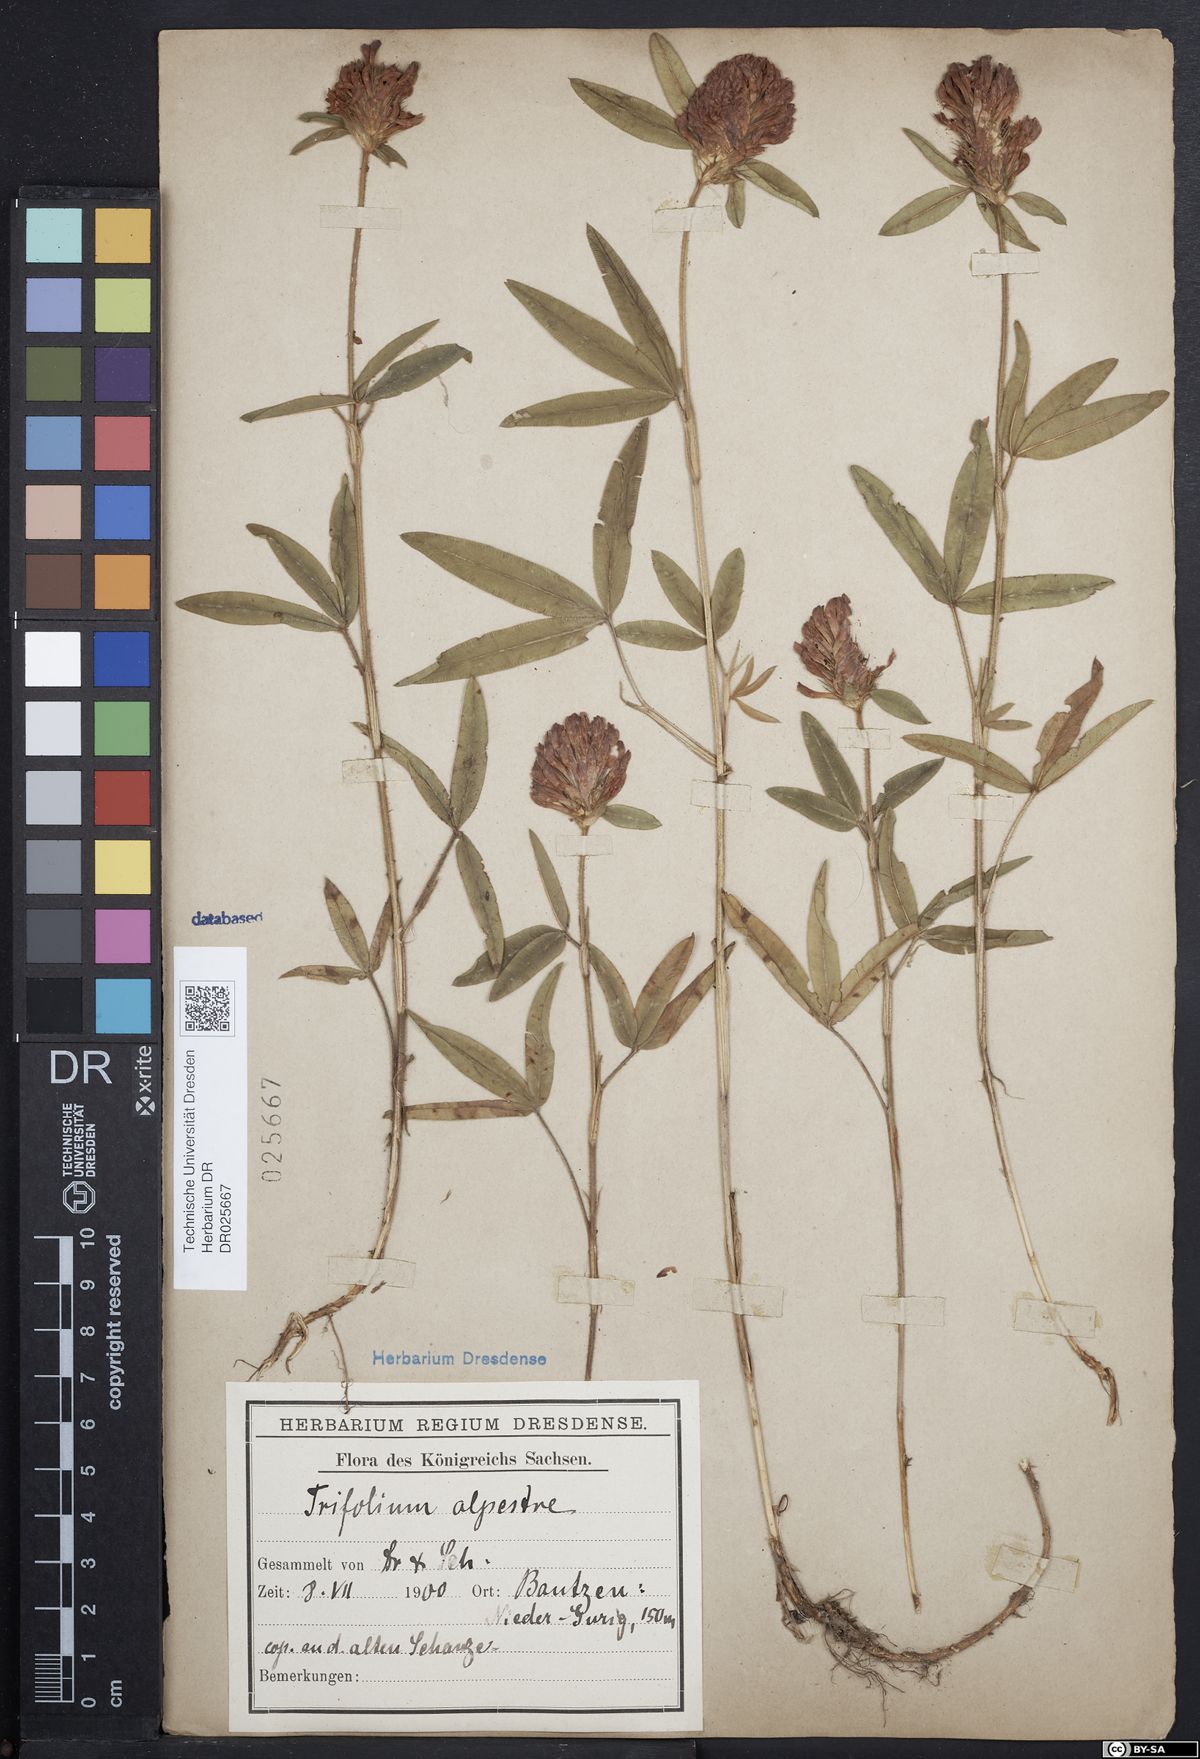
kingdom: Plantae
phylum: Tracheophyta
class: Magnoliopsida
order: Fabales
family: Fabaceae
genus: Trifolium
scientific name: Trifolium alpestre
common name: Owl-head clover
